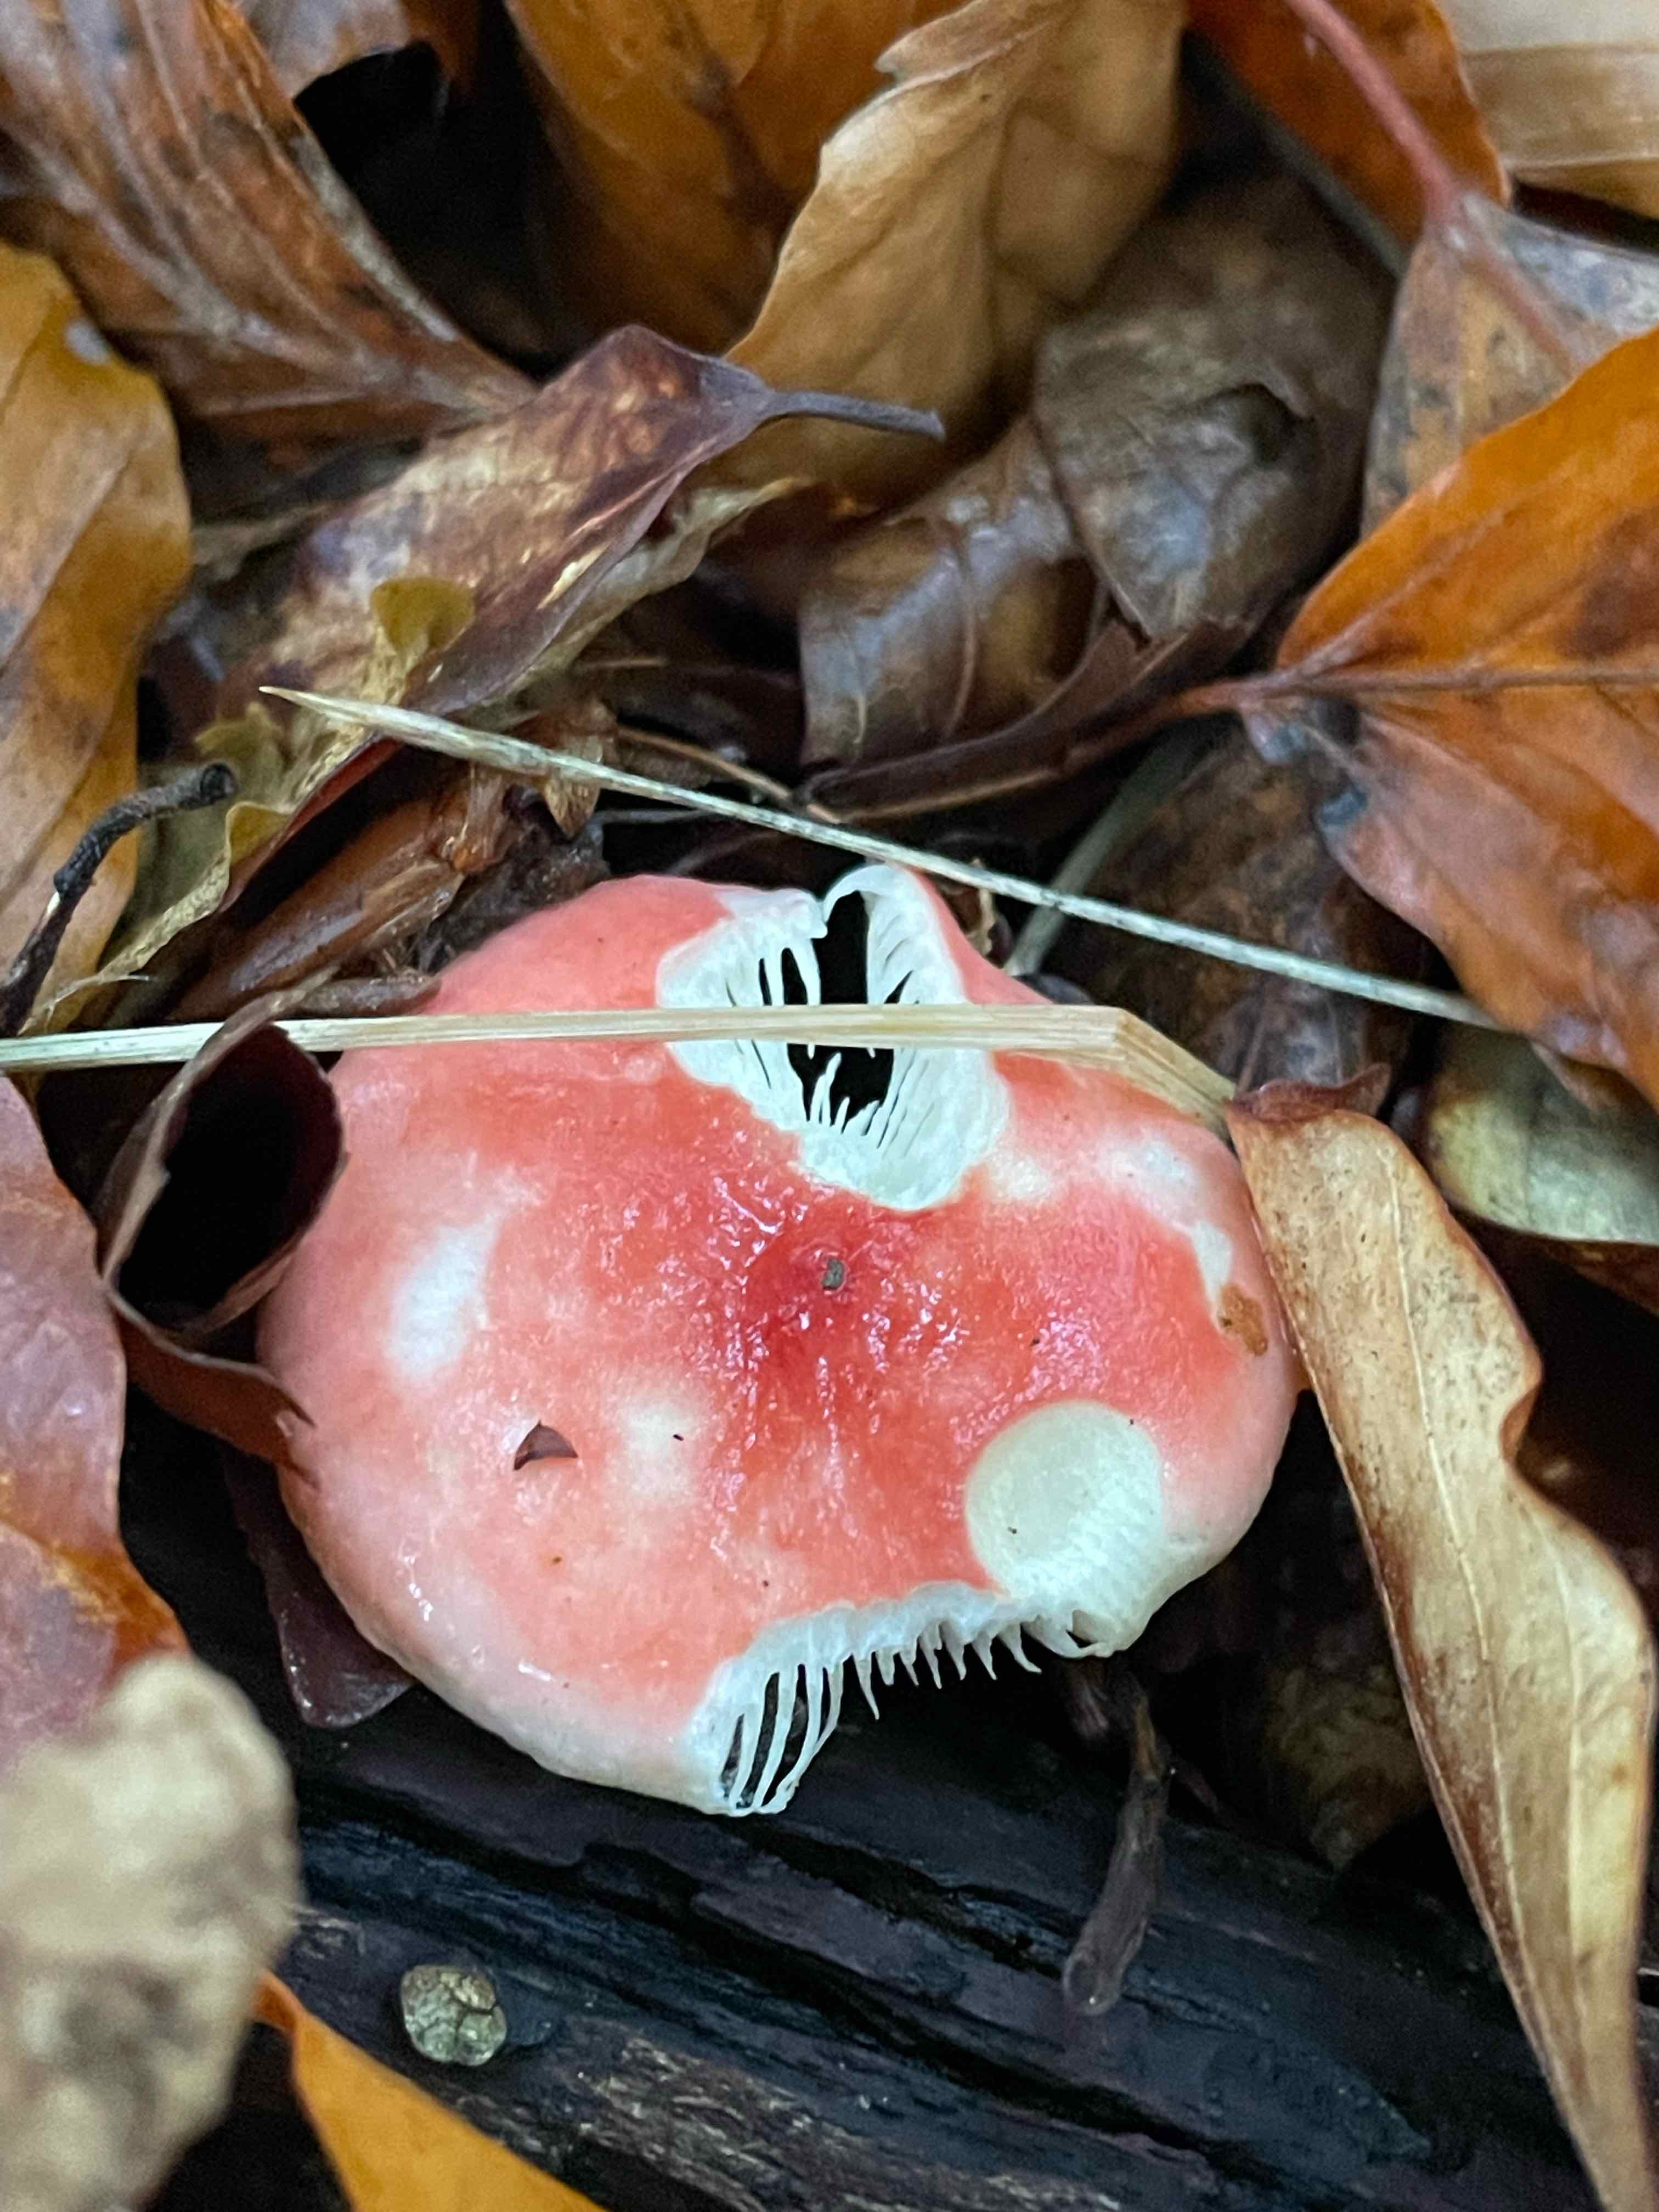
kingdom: Fungi
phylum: Basidiomycota
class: Agaricomycetes
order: Russulales
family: Russulaceae
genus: Russula
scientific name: Russula nobilis
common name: lille gift-skørhat
